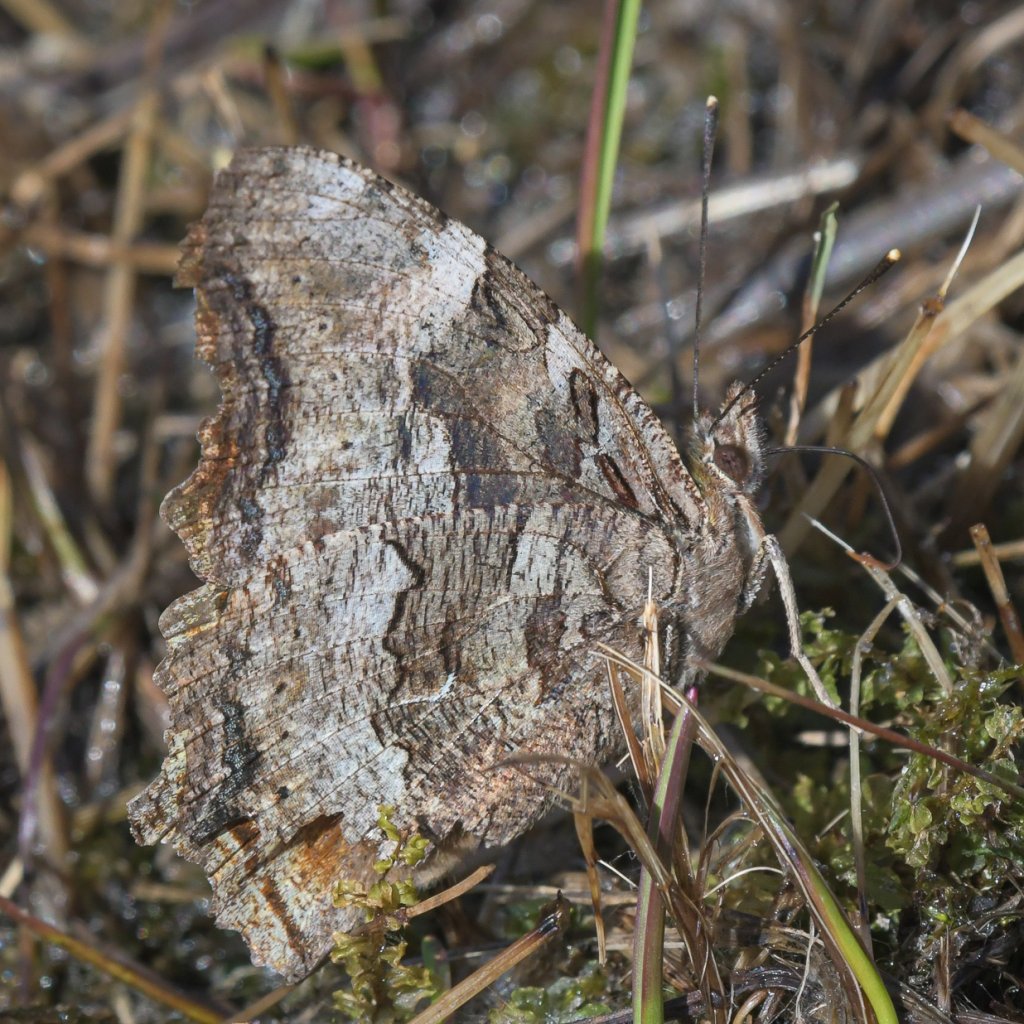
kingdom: Animalia
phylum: Arthropoda
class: Insecta
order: Lepidoptera
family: Nymphalidae
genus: Polygonia
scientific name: Polygonia vaualbum
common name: Compton Tortoiseshell
